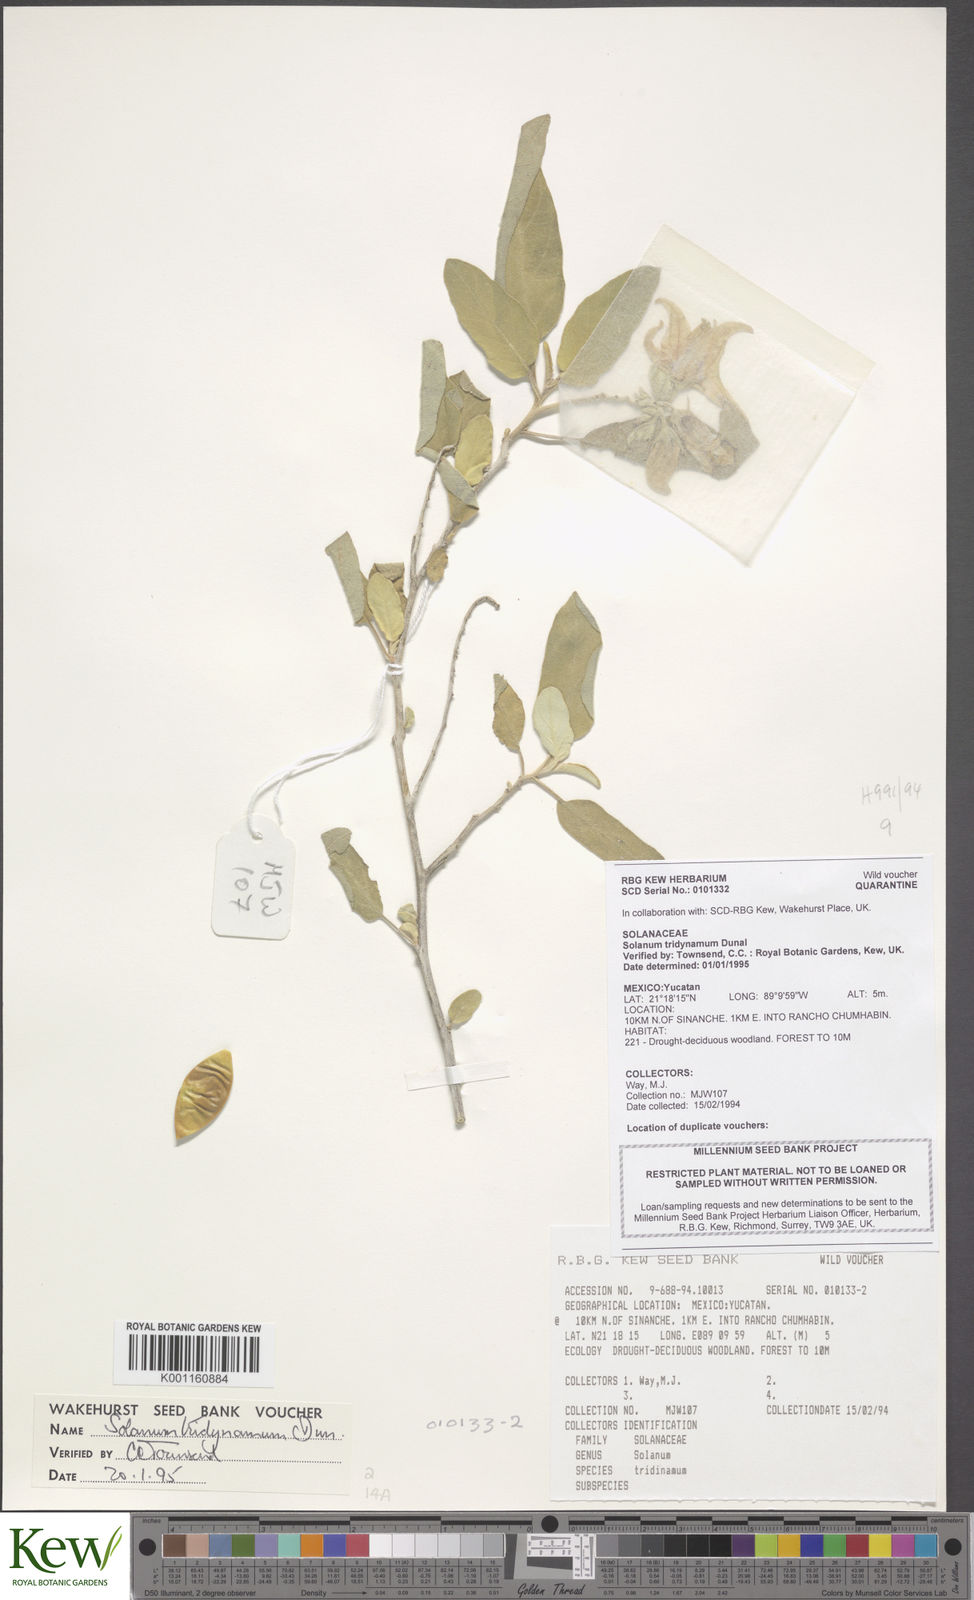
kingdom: Plantae
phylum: Tracheophyta
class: Magnoliopsida
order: Solanales
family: Solanaceae
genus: Solanum
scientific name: Solanum houstonii
